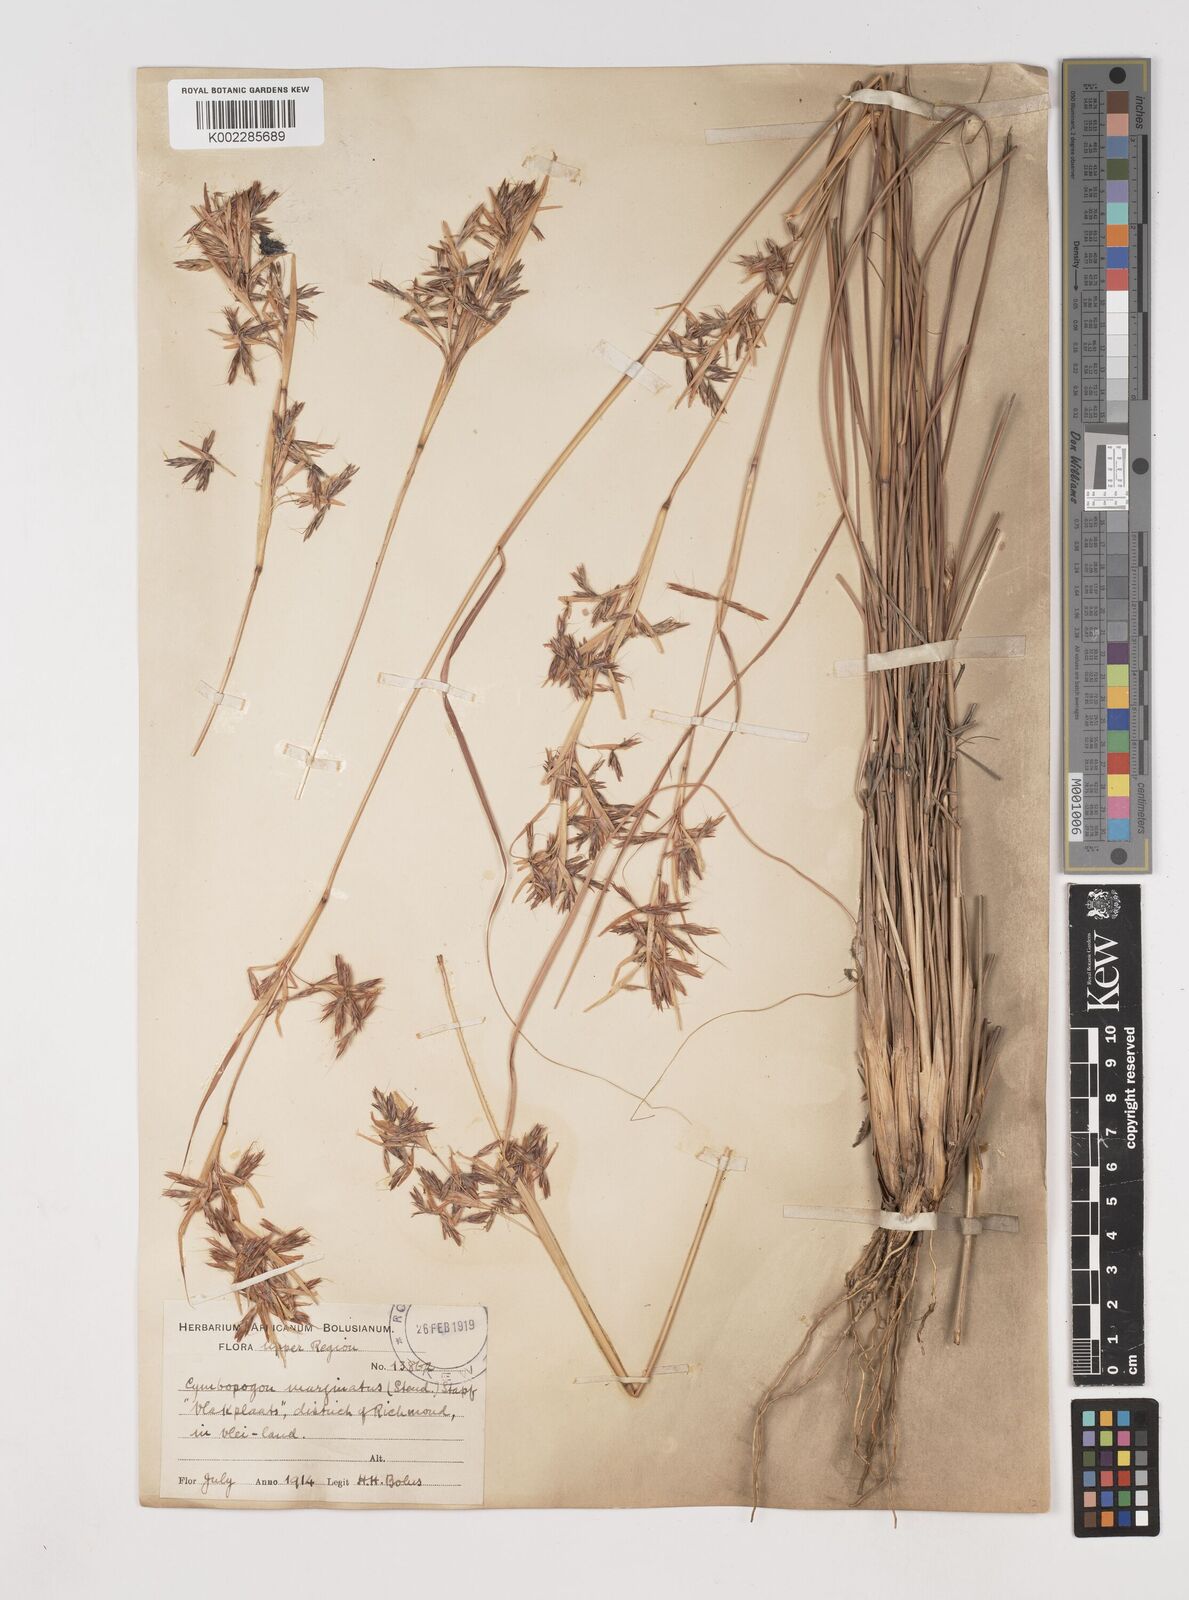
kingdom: Plantae
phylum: Tracheophyta
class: Liliopsida
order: Poales
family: Poaceae
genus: Cymbopogon
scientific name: Cymbopogon marginatus
